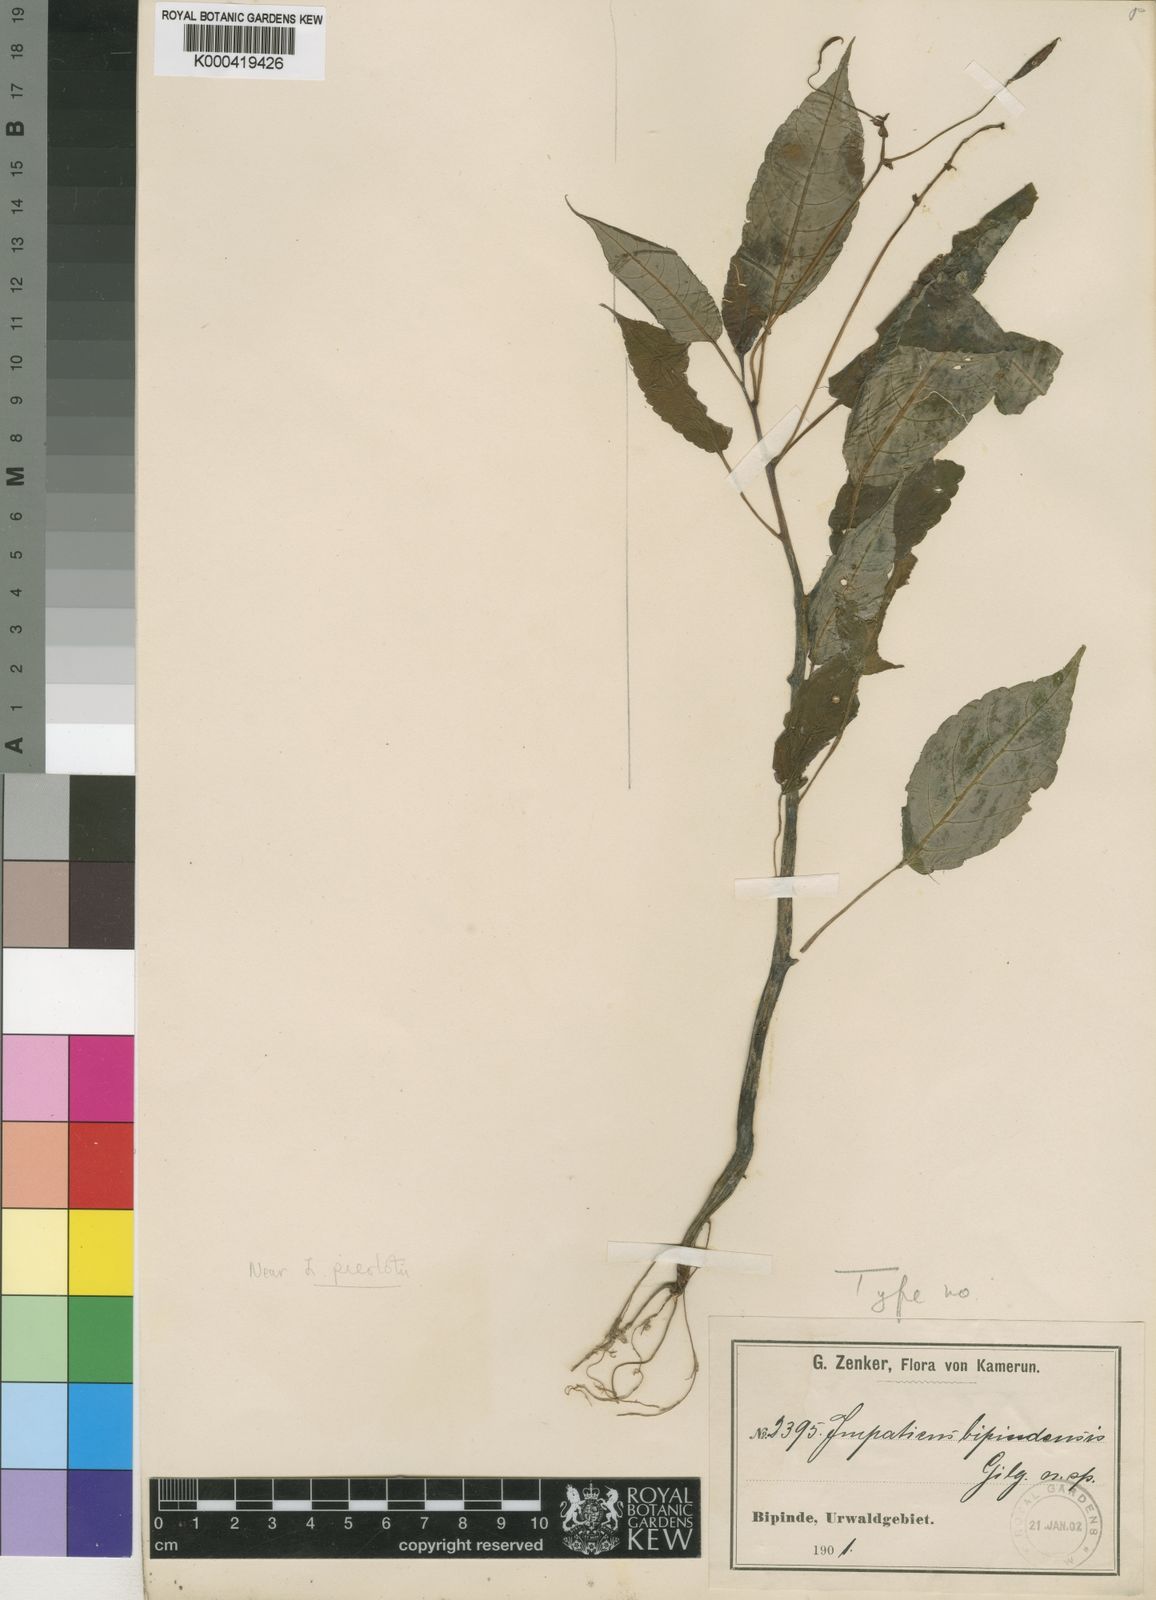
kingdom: Plantae
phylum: Tracheophyta
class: Magnoliopsida
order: Ericales
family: Balsaminaceae
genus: Impatiens
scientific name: Impatiens hians
